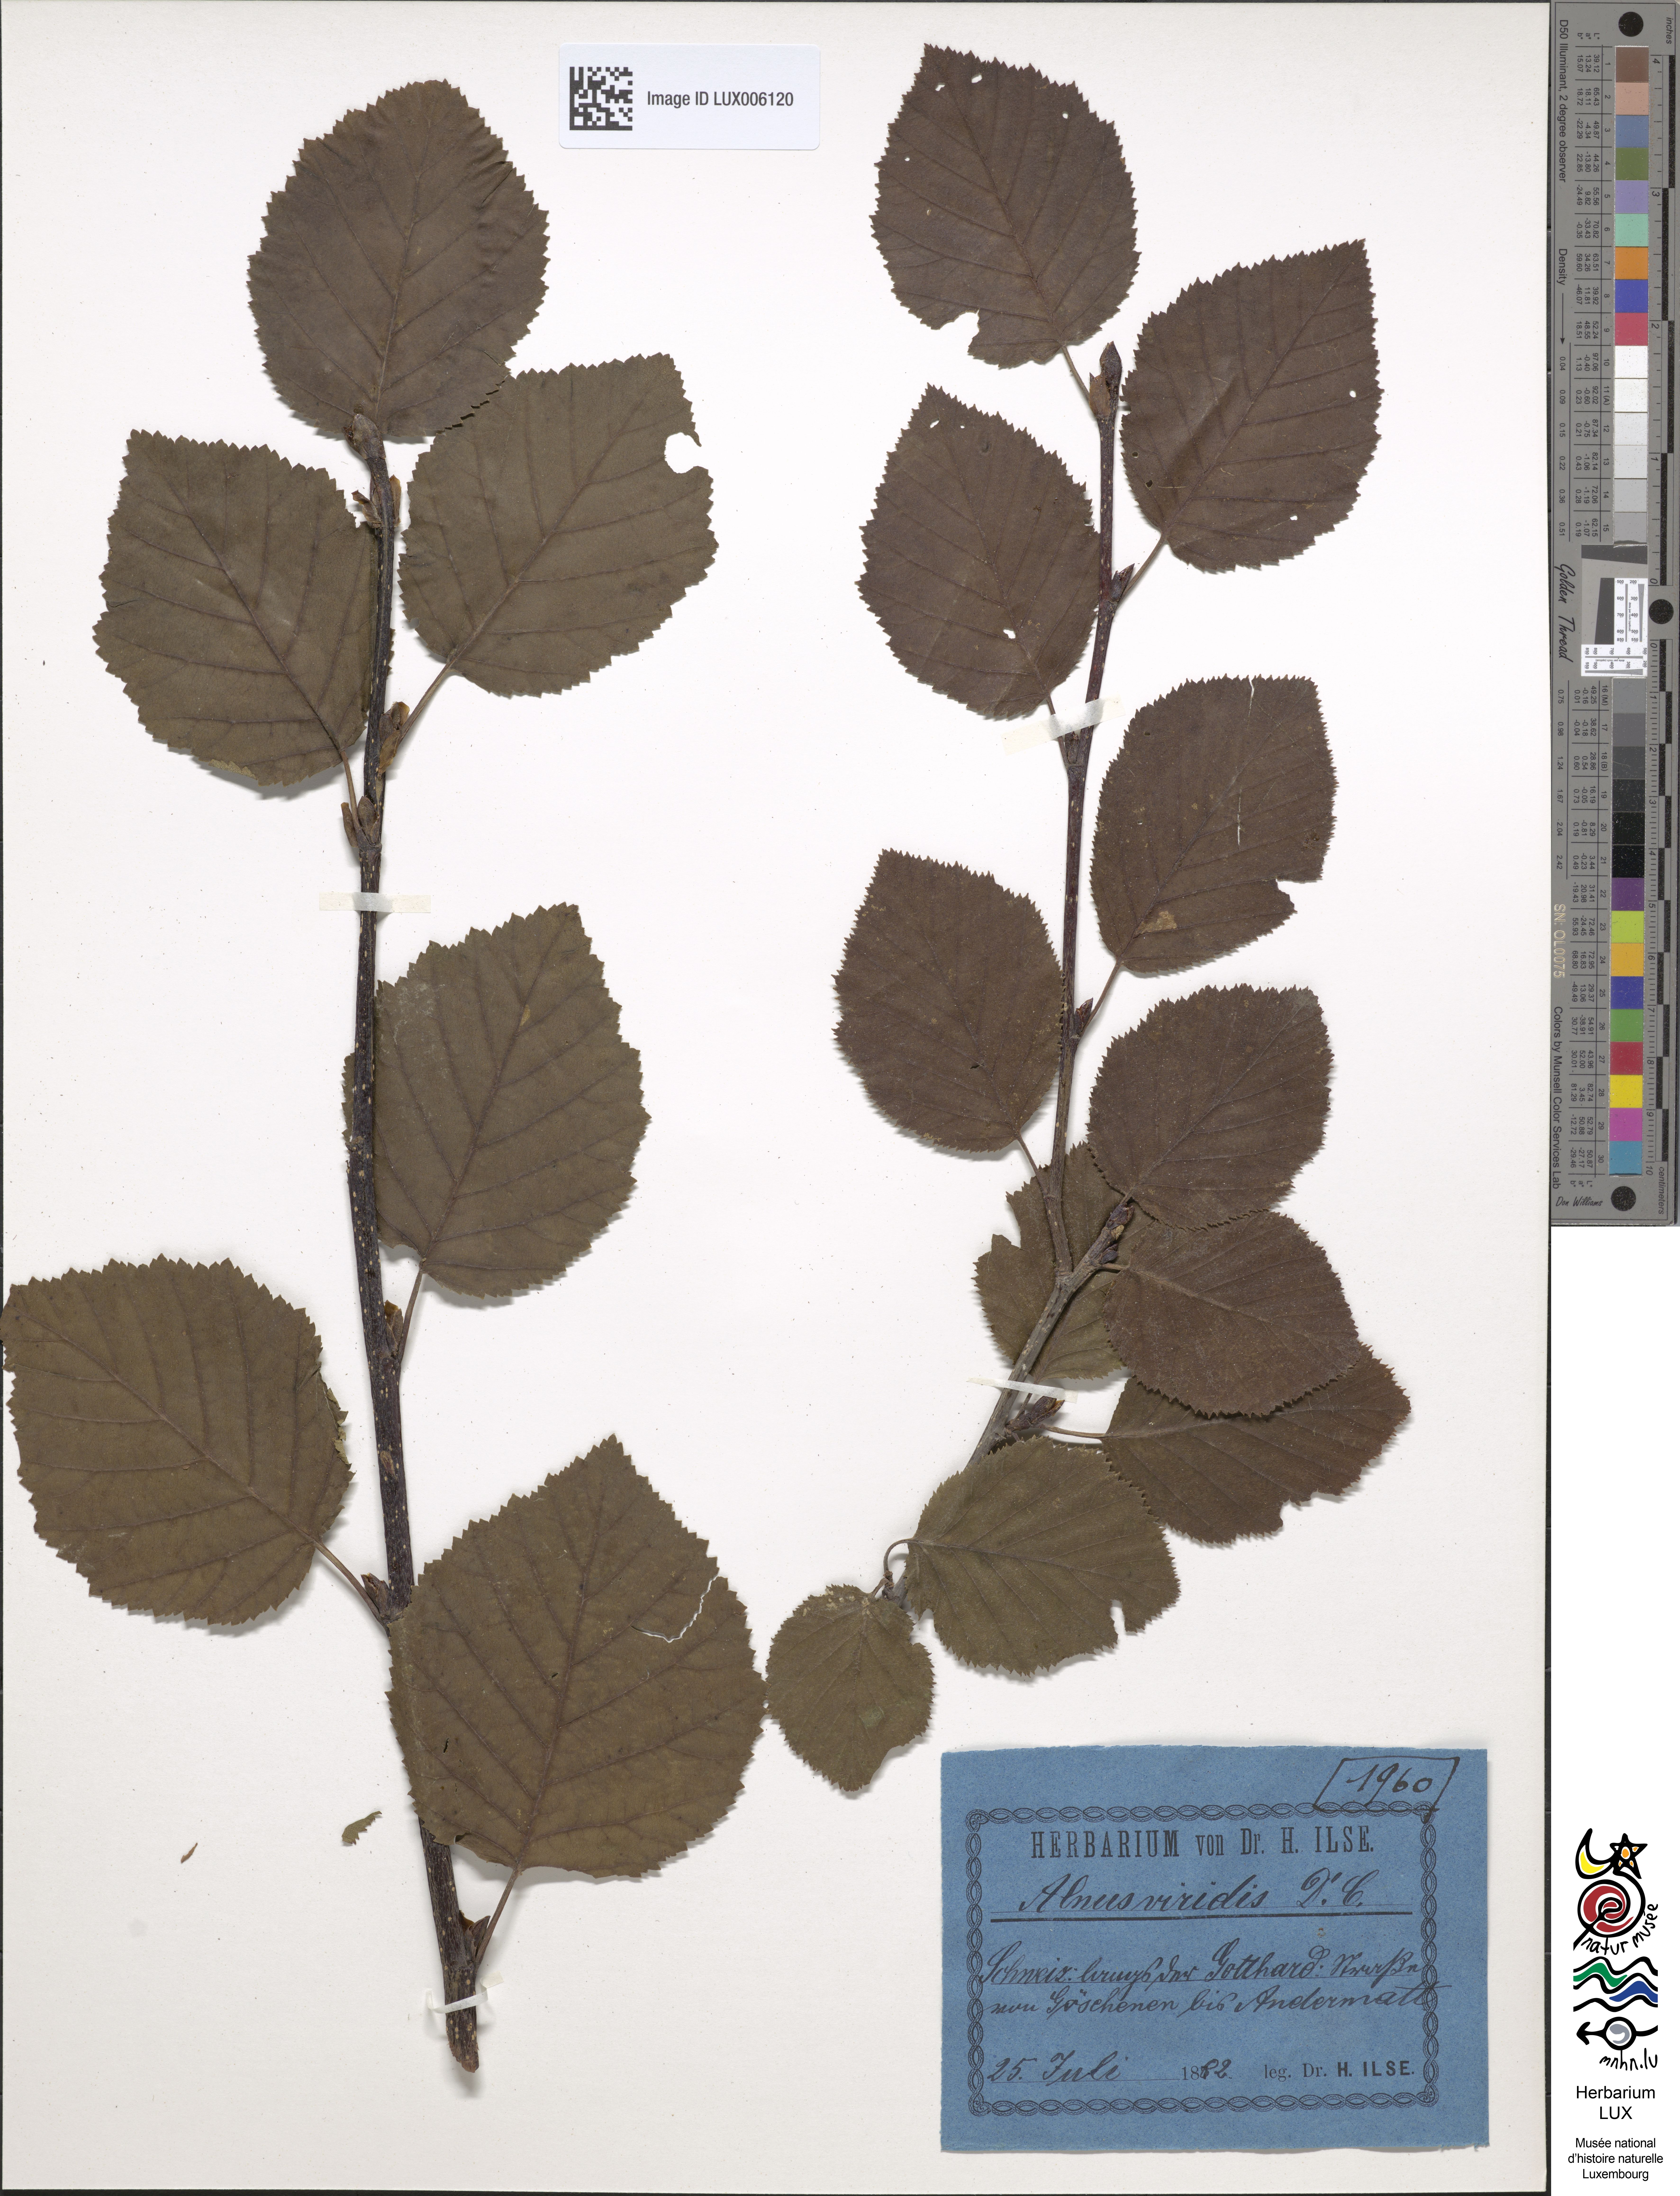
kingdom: Plantae
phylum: Tracheophyta
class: Magnoliopsida
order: Fagales
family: Betulaceae
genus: Alnus
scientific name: Alnus alnobetula
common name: Green alder
